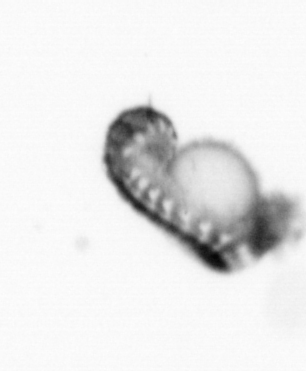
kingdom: Animalia
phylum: Annelida
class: Polychaeta
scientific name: Polychaeta
